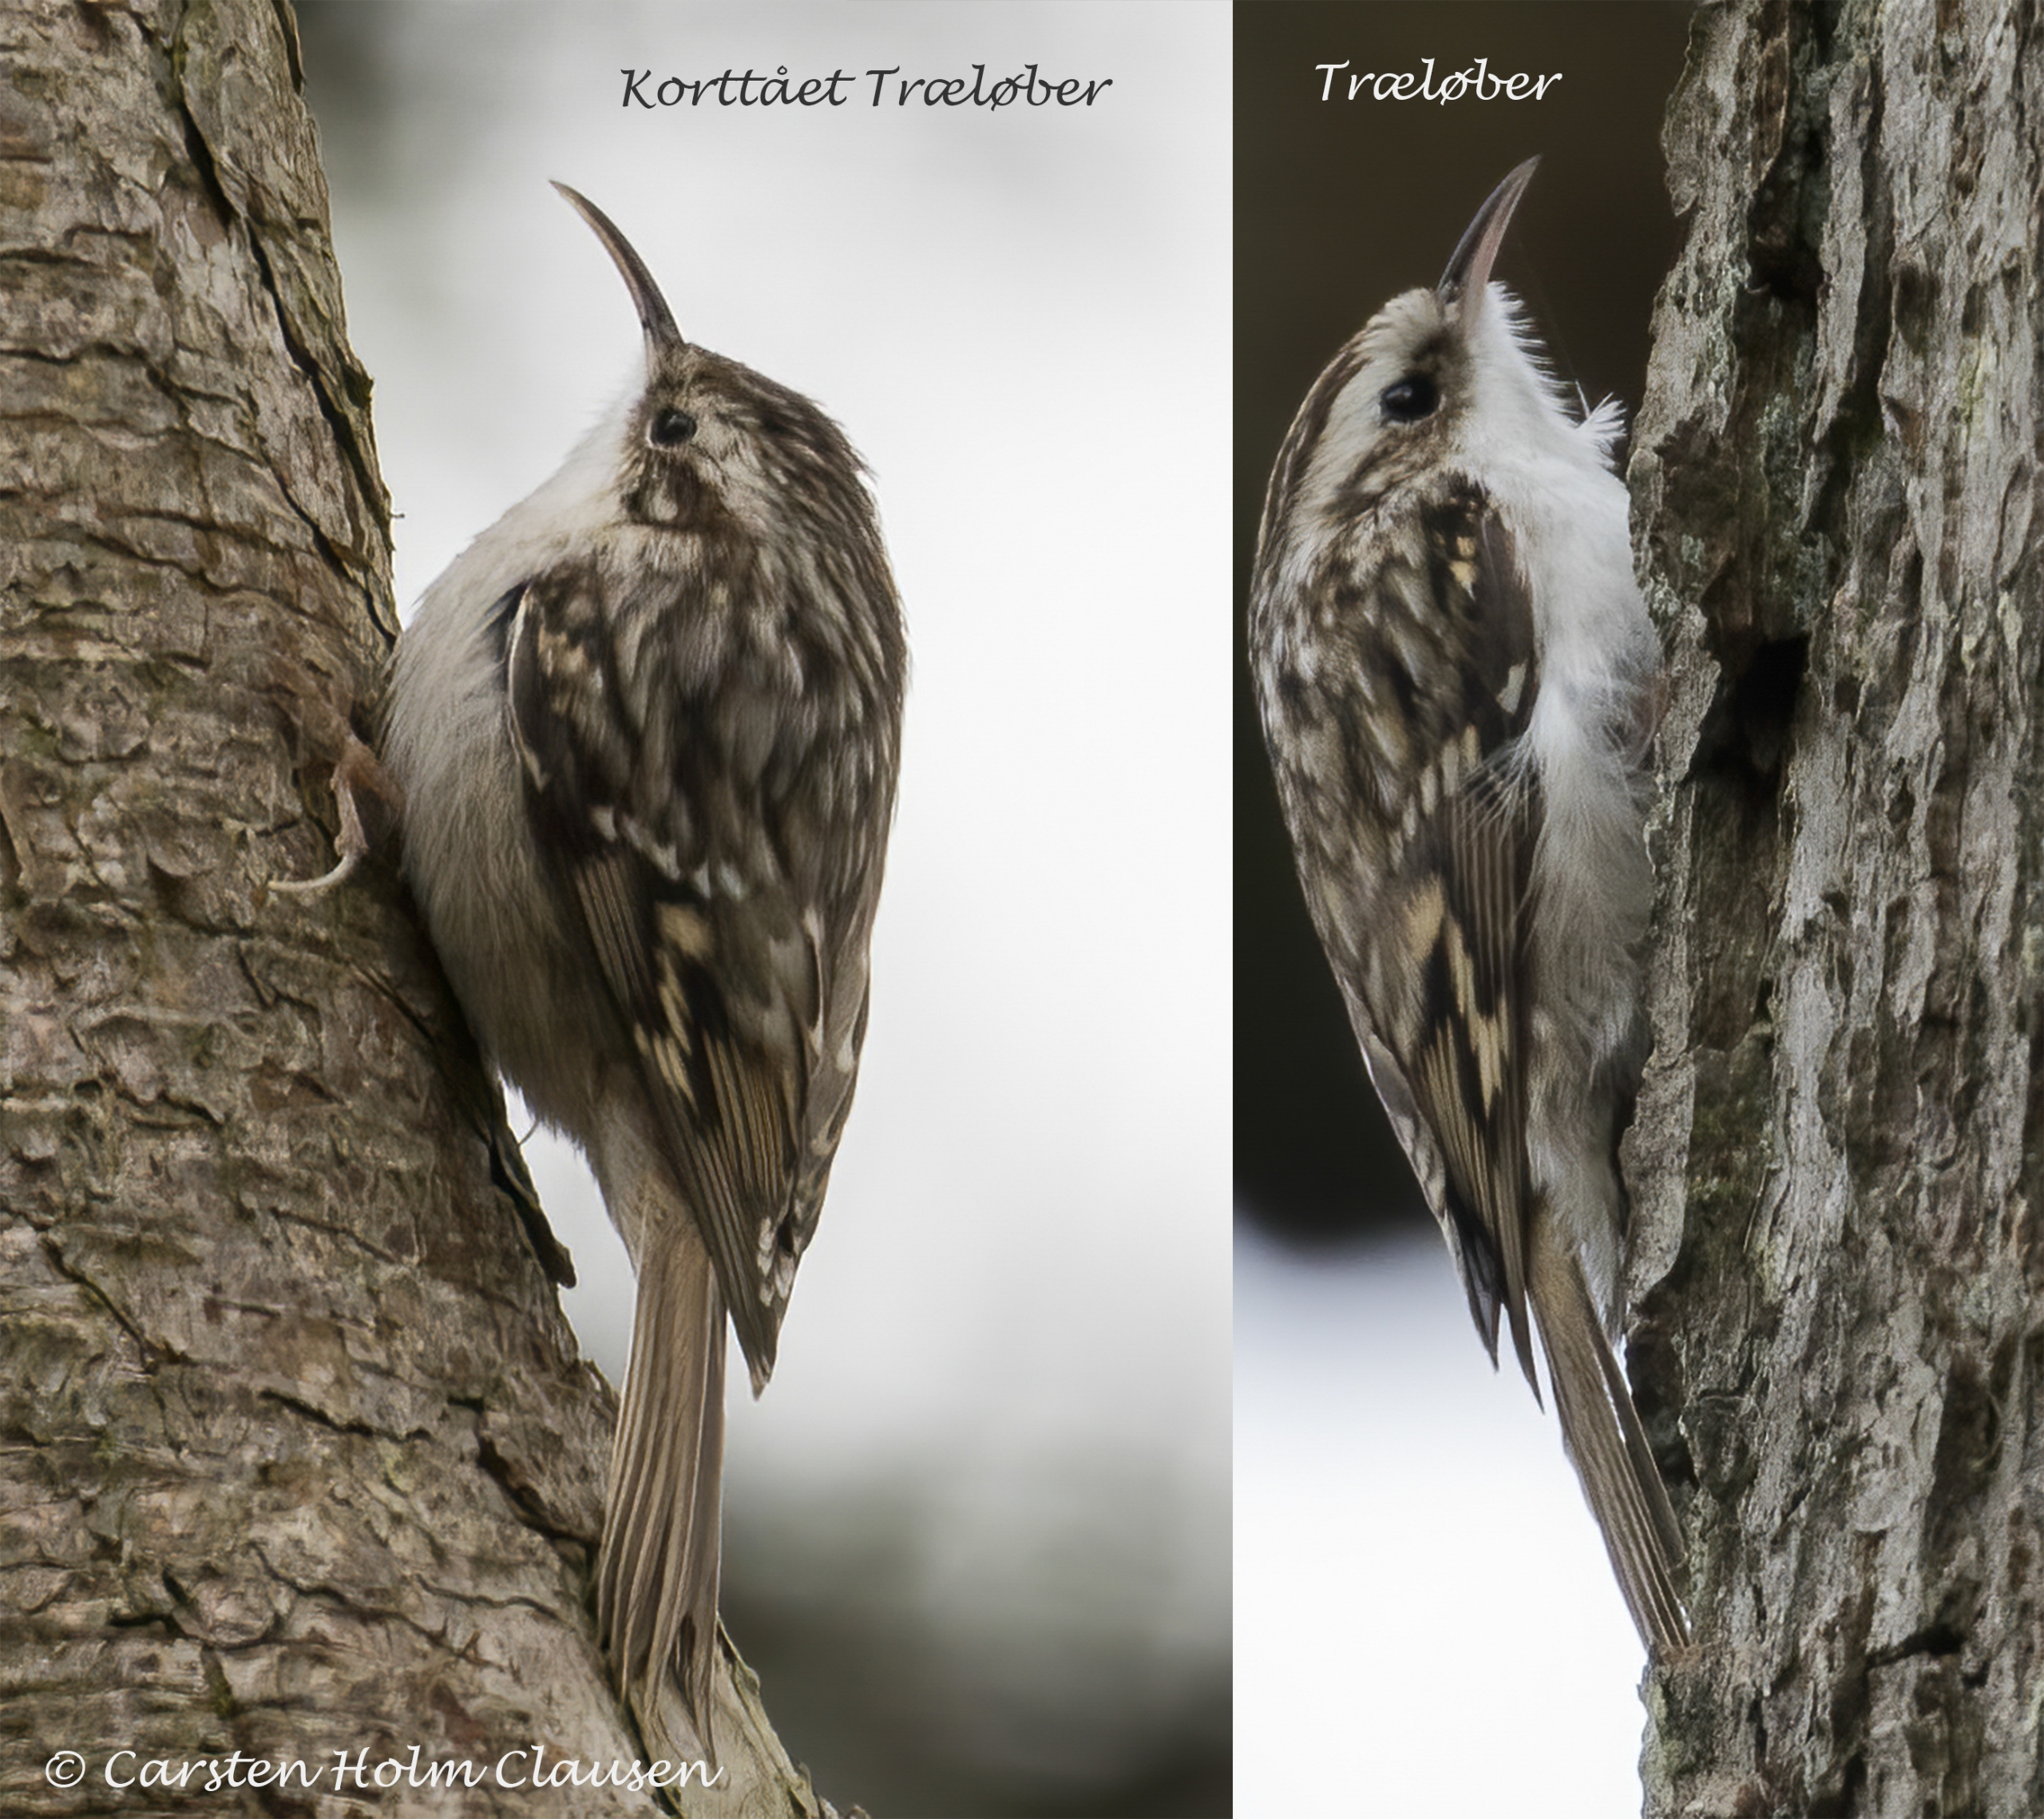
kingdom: Animalia
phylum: Chordata
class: Aves
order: Passeriformes
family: Certhiidae
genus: Certhia
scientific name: Certhia brachydactyla
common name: Korttået træløber
